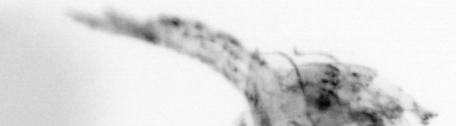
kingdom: Animalia
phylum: Arthropoda
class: Copepoda
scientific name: Copepoda
